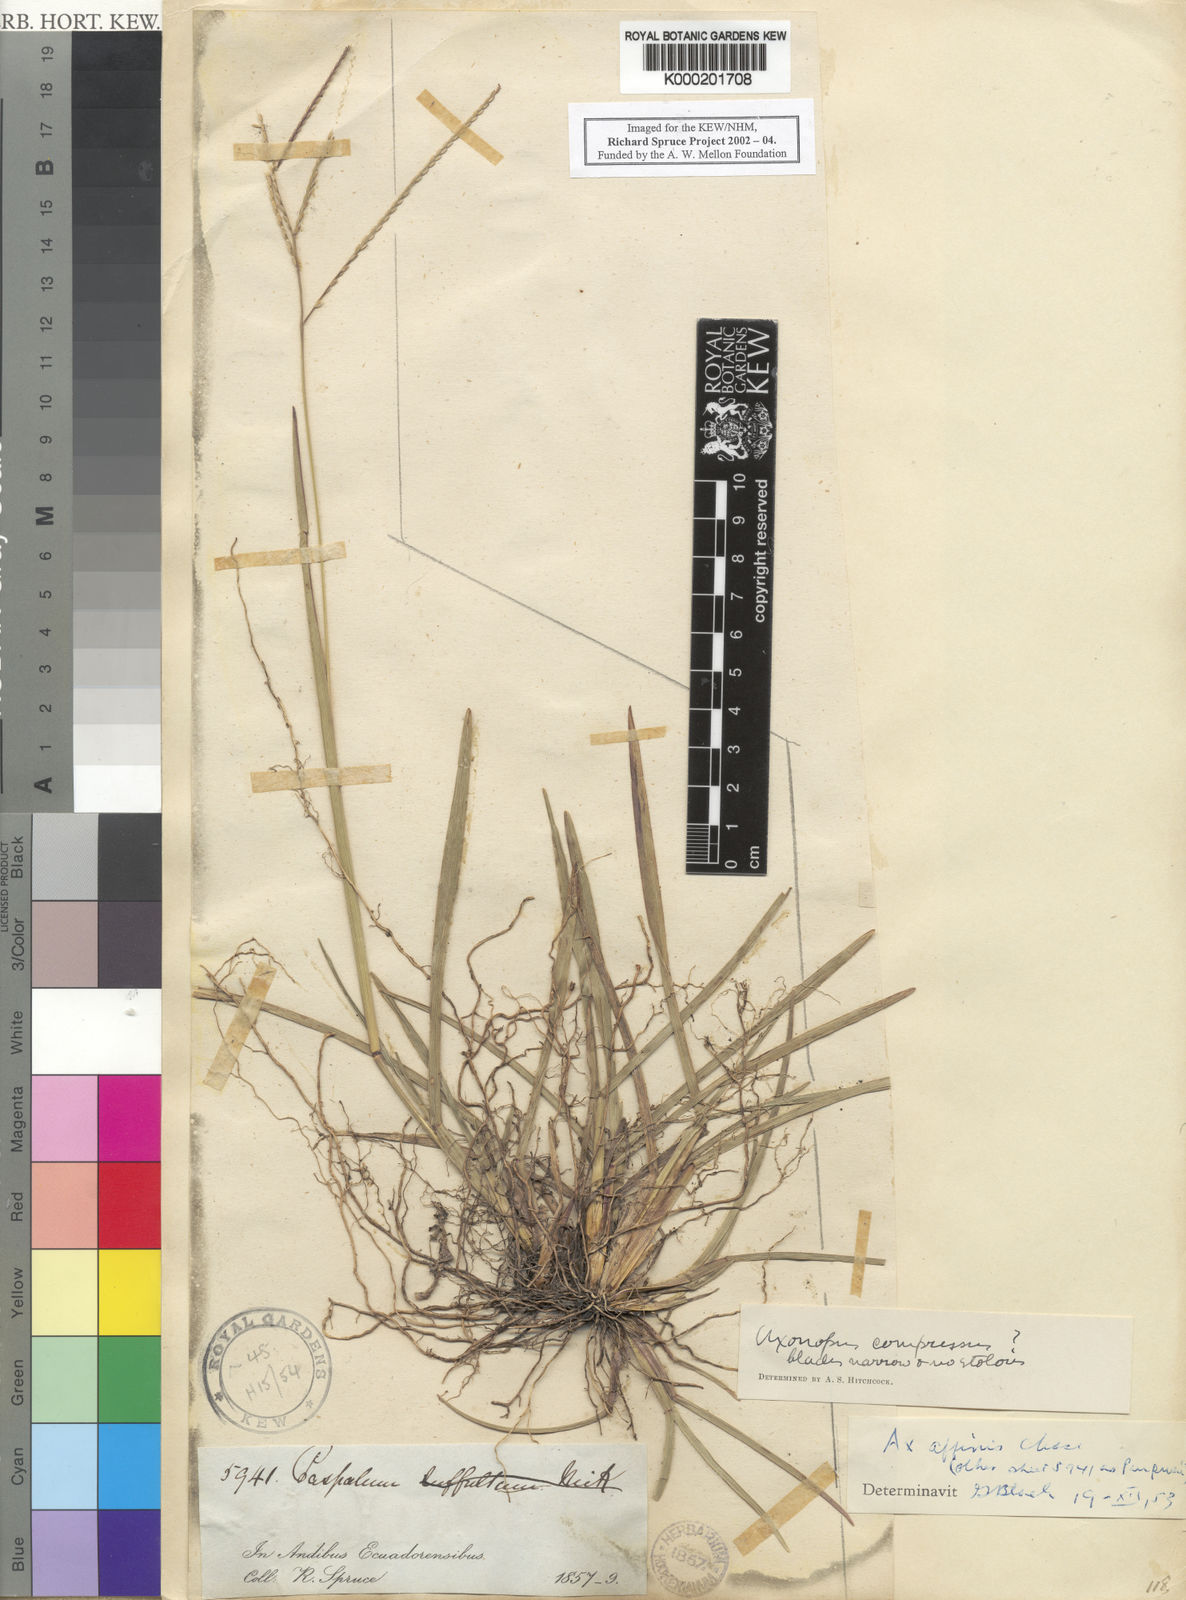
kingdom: Plantae
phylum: Tracheophyta
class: Liliopsida
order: Poales
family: Poaceae
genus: Axonopus
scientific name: Axonopus fissifolius
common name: Common carpetgrass
